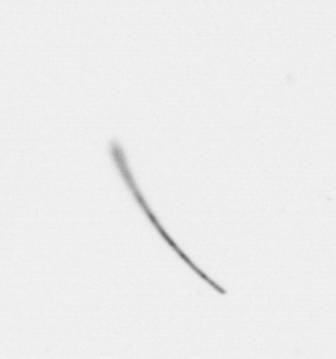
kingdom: Chromista
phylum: Ochrophyta
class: Bacillariophyceae
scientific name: Bacillariophyceae
